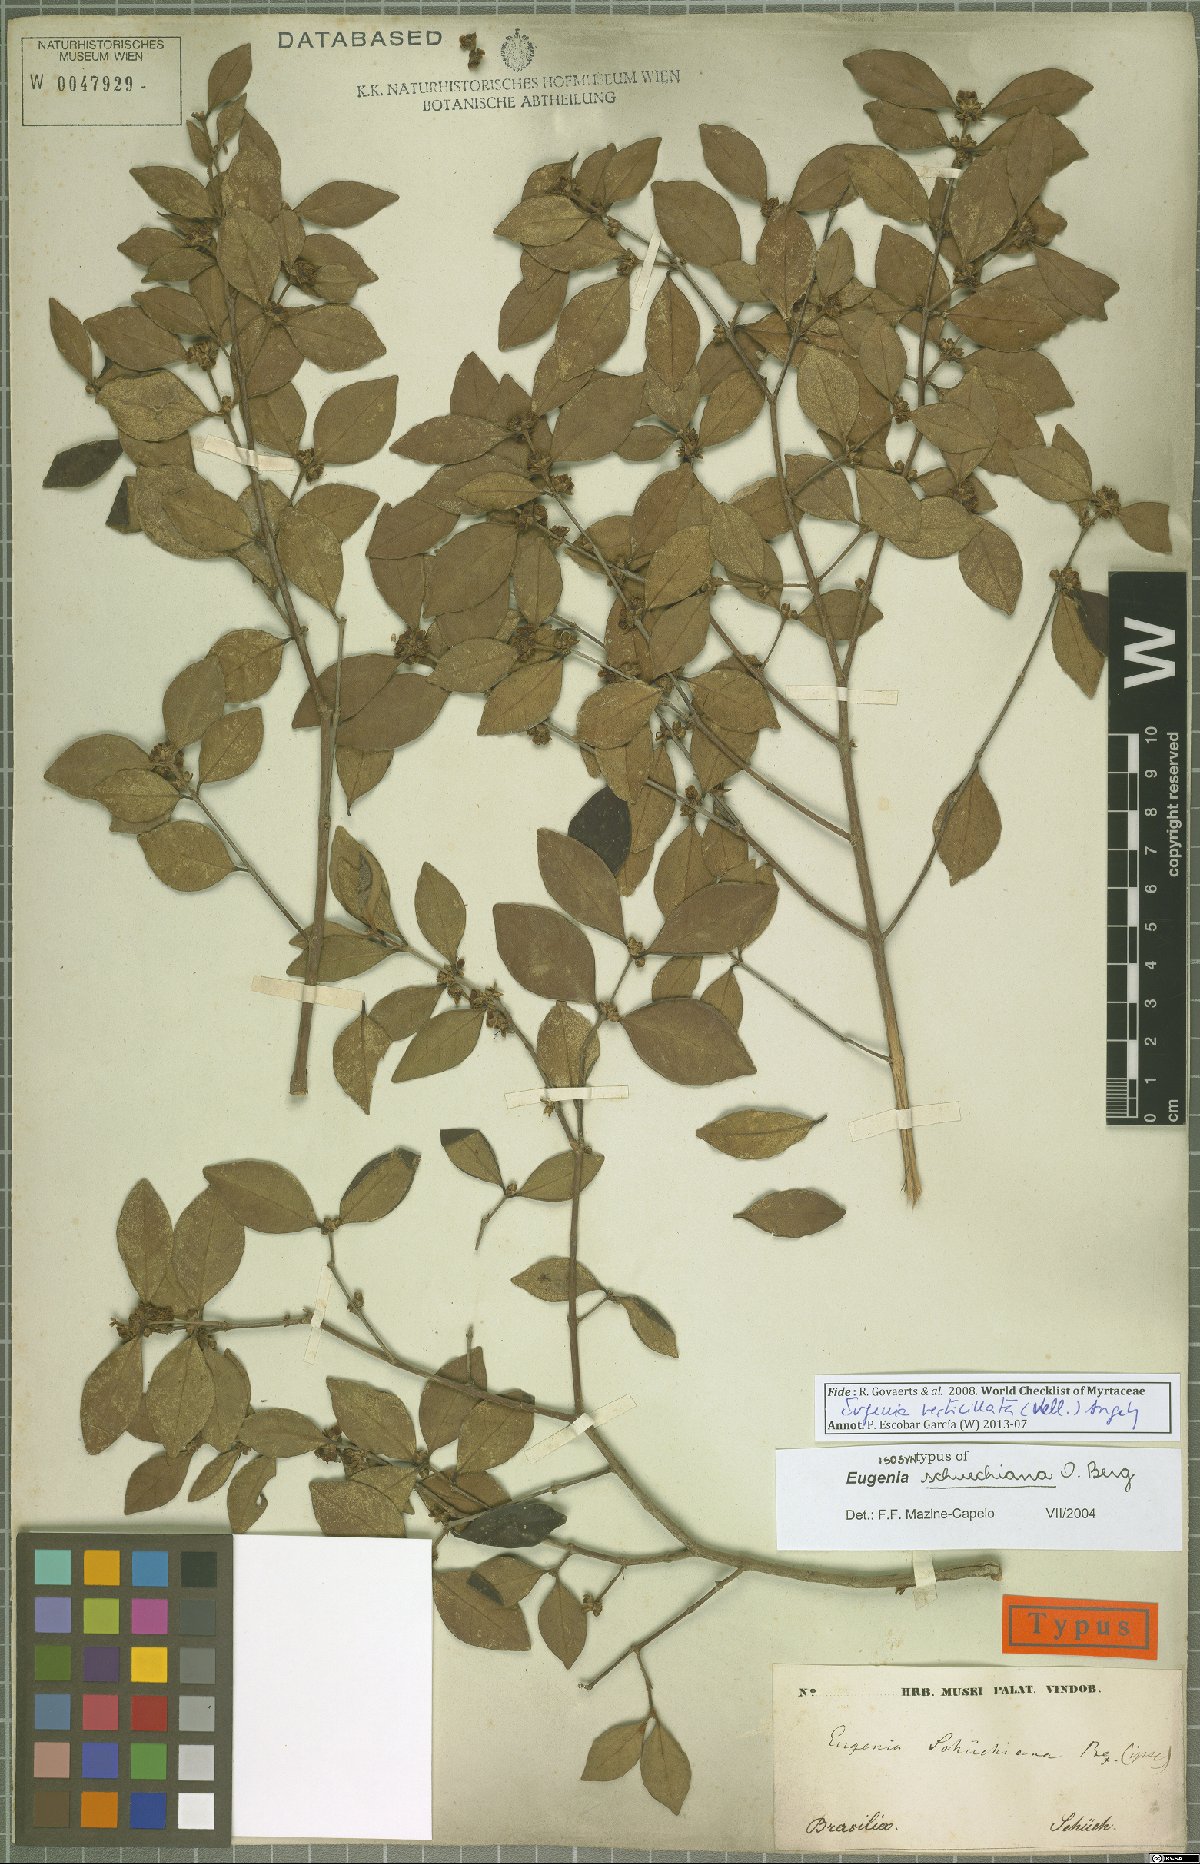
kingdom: Plantae
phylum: Tracheophyta
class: Magnoliopsida
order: Myrtales
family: Myrtaceae
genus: Eugenia
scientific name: Eugenia verticillata
